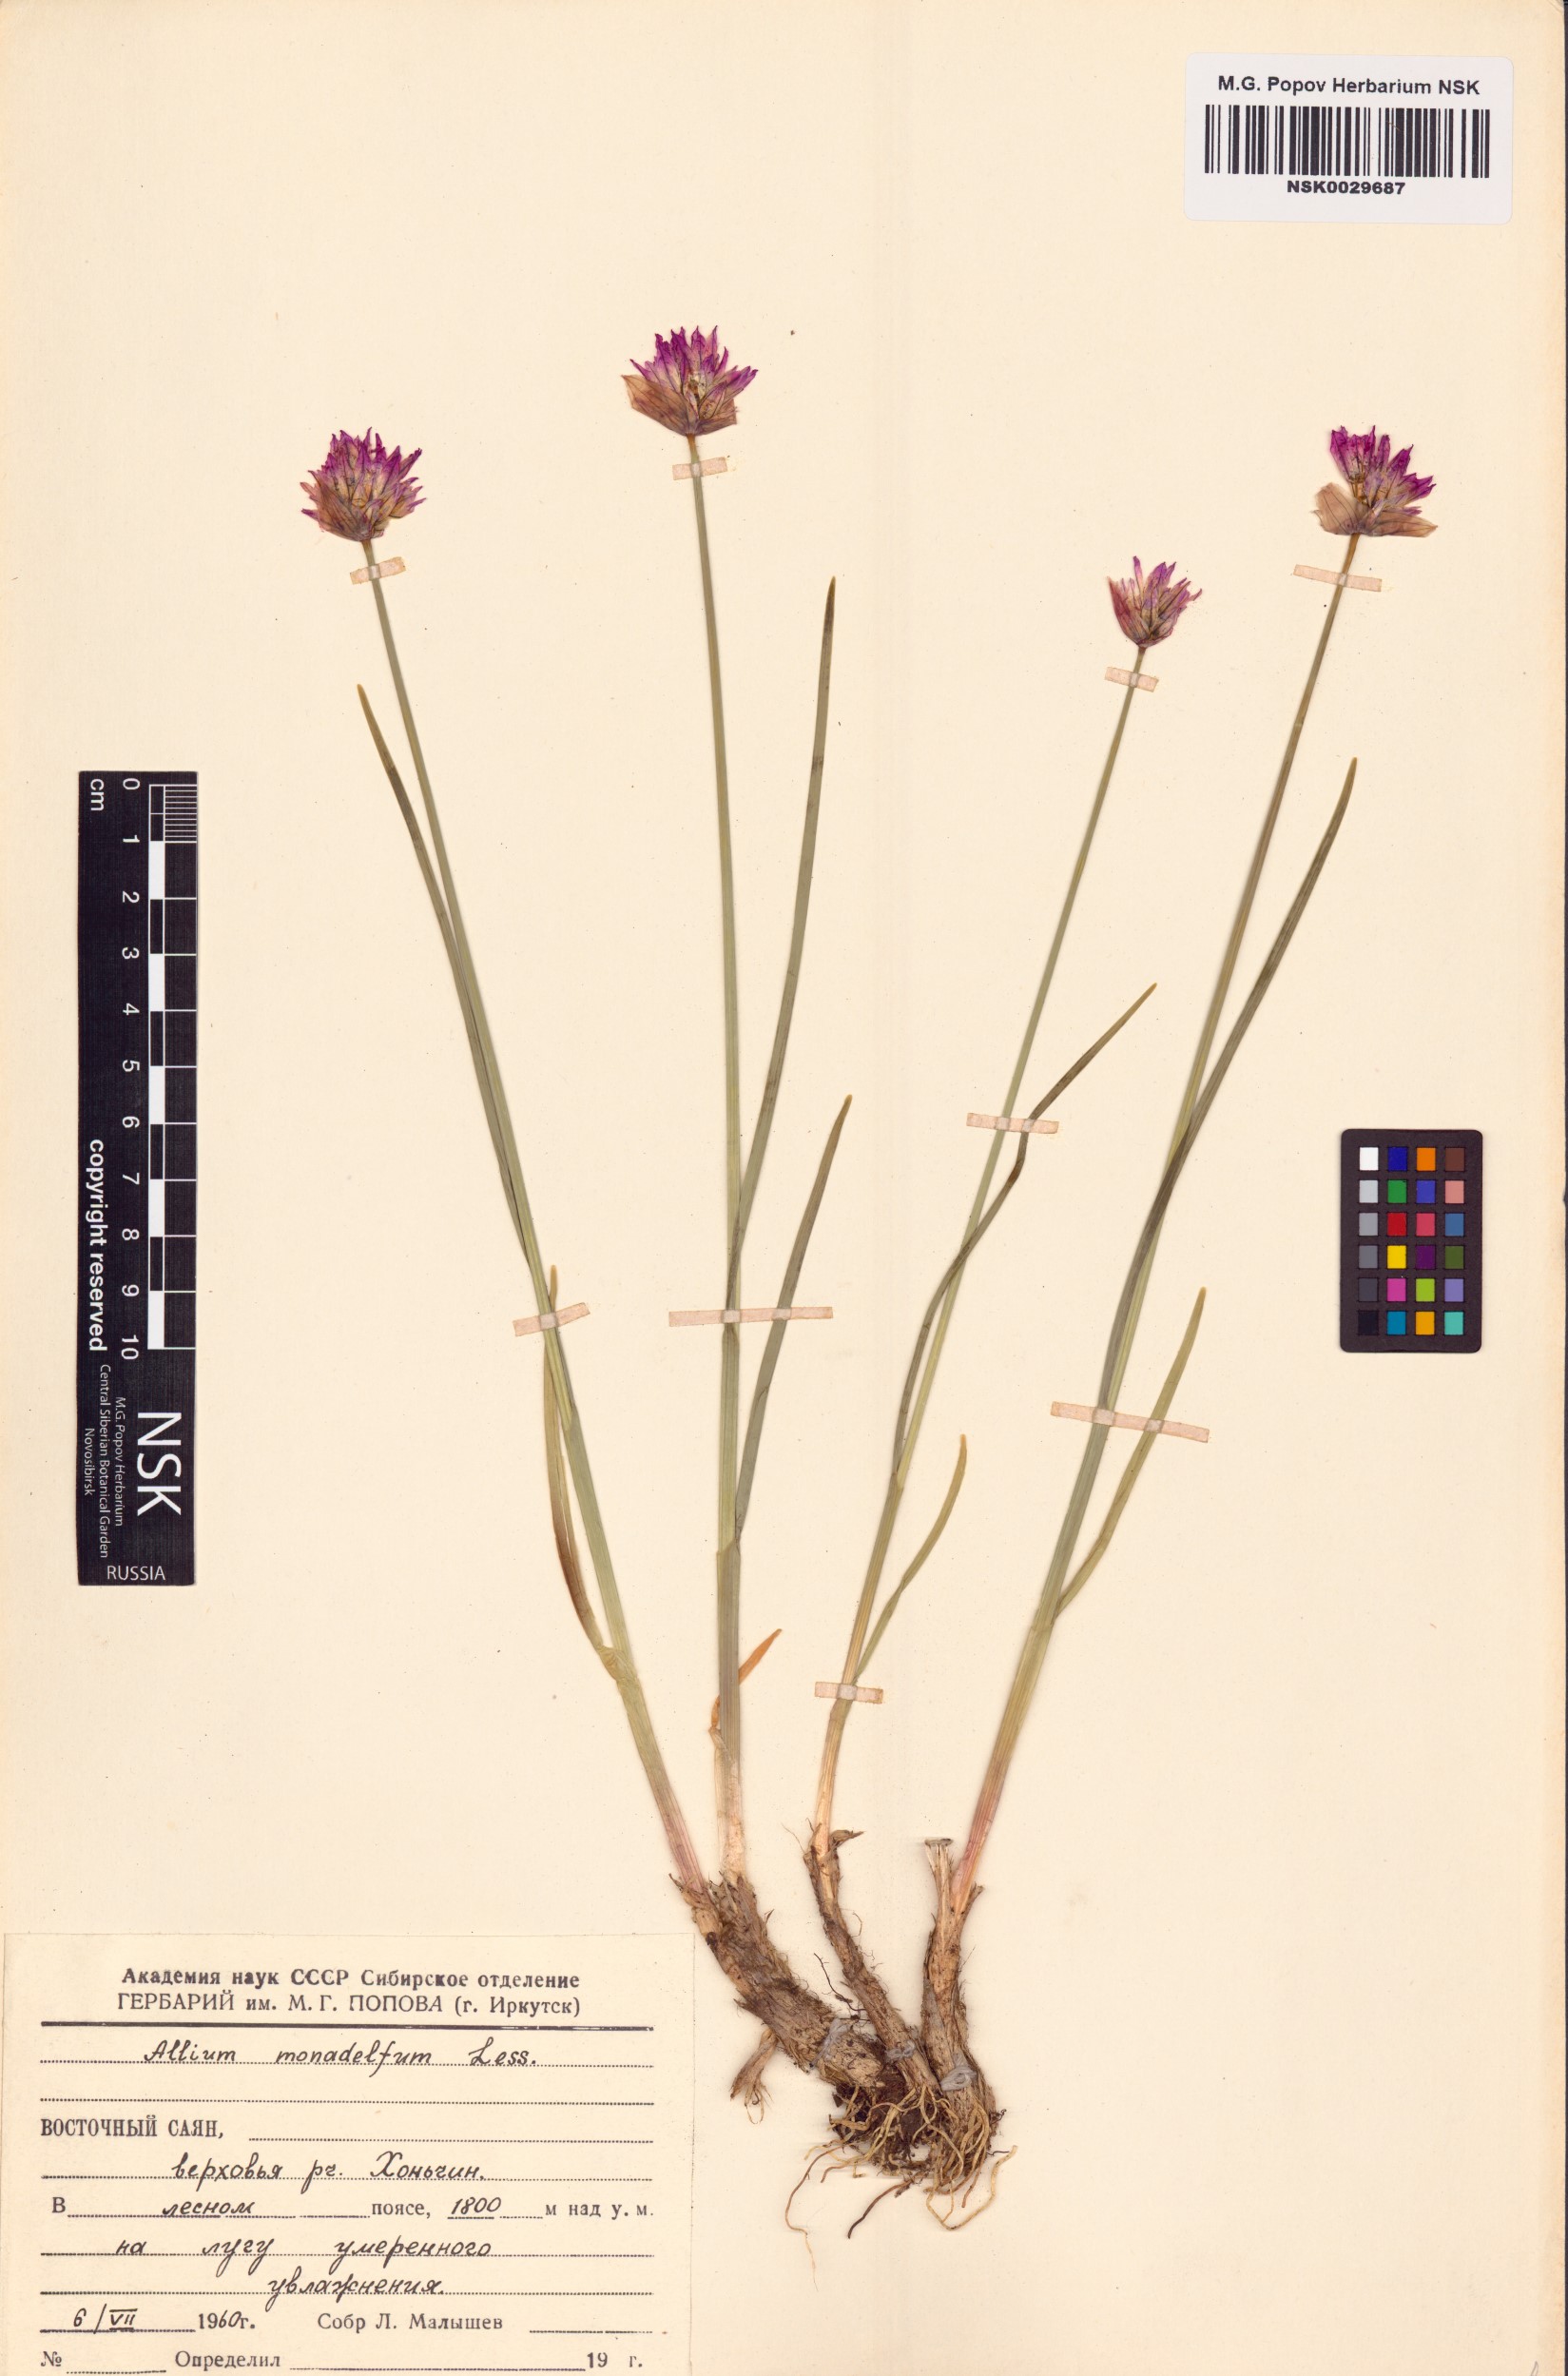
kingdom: Plantae
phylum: Tracheophyta
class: Liliopsida
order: Asparagales
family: Amaryllidaceae
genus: Allium
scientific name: Allium atrosanguineum
